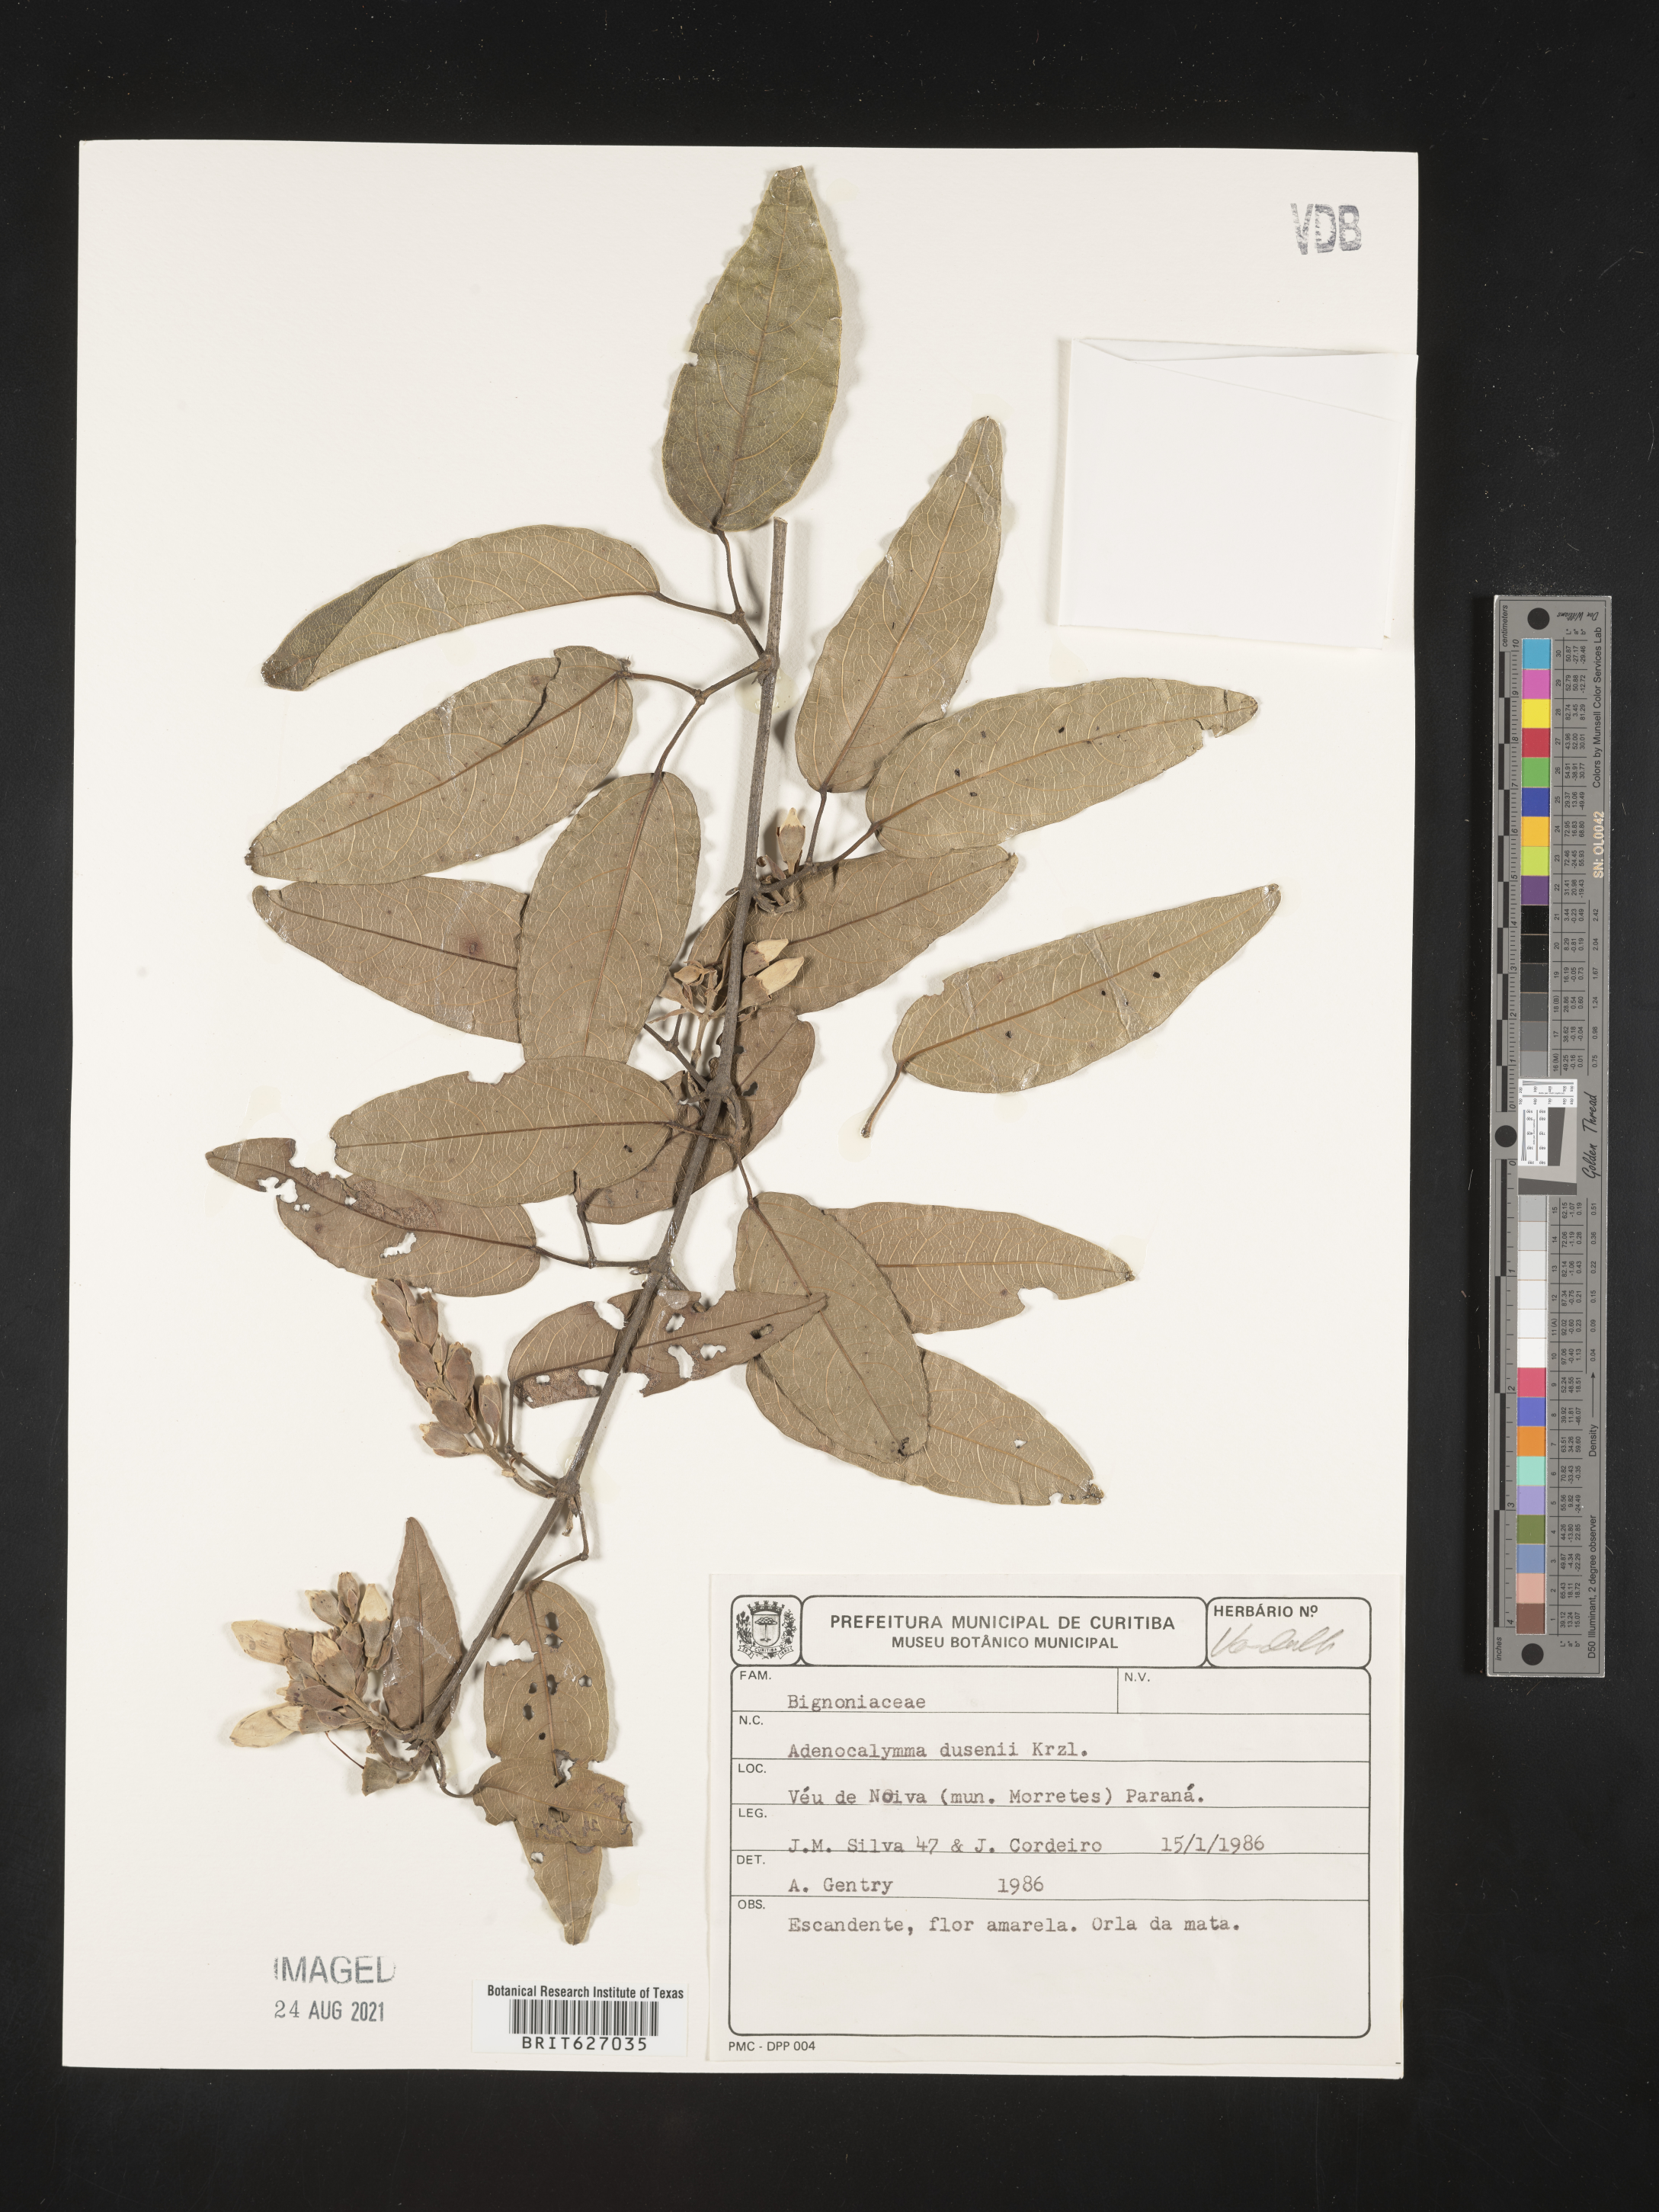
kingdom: Plantae
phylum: Tracheophyta
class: Magnoliopsida
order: Lamiales
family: Bignoniaceae
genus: Adenocalymma
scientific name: Adenocalymma dusenii
